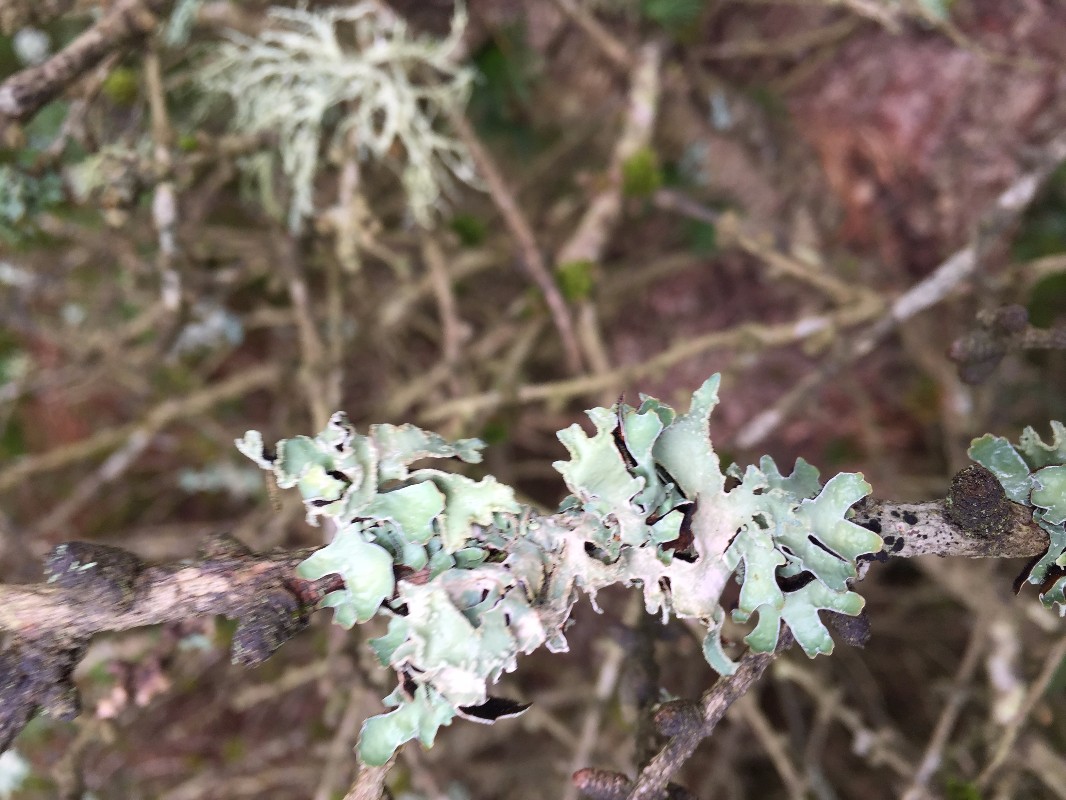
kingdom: Fungi
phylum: Ascomycota
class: Lecanoromycetes
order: Lecanorales
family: Parmeliaceae
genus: Parmelia
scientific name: Parmelia sulcata
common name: rynket skållav
